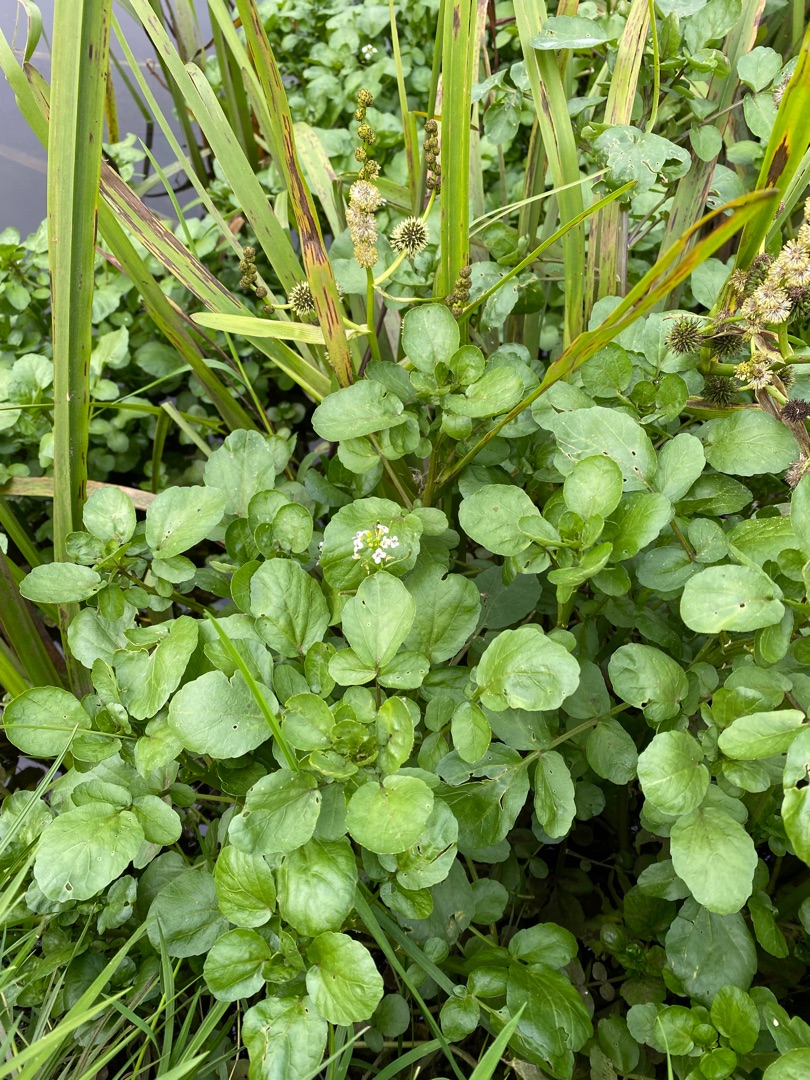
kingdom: Plantae
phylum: Tracheophyta
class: Magnoliopsida
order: Brassicales
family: Brassicaceae
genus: Nasturtium
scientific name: Nasturtium officinale
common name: Tykskulpet brøndkarse
